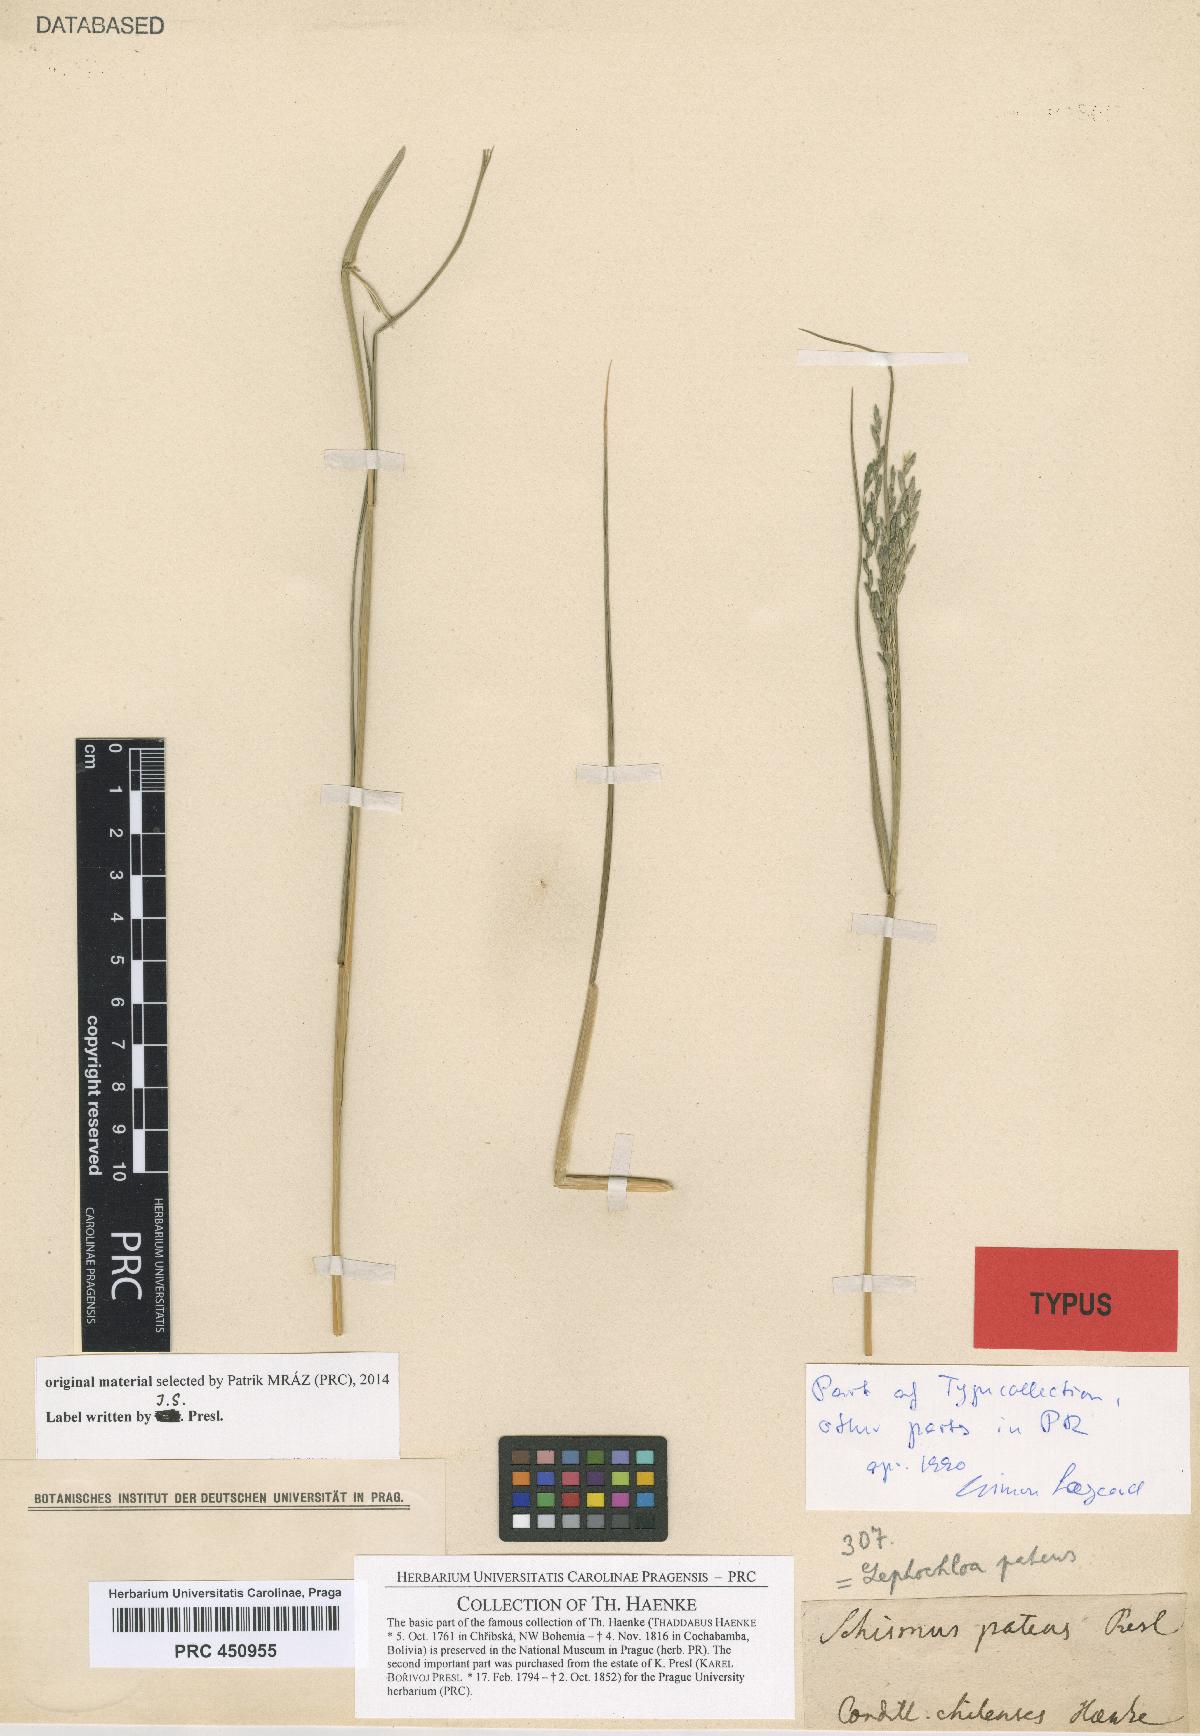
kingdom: Plantae
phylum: Tracheophyta
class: Liliopsida
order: Poales
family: Poaceae
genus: Disakisperma
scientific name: Disakisperma dubium
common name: Green sprangletop
